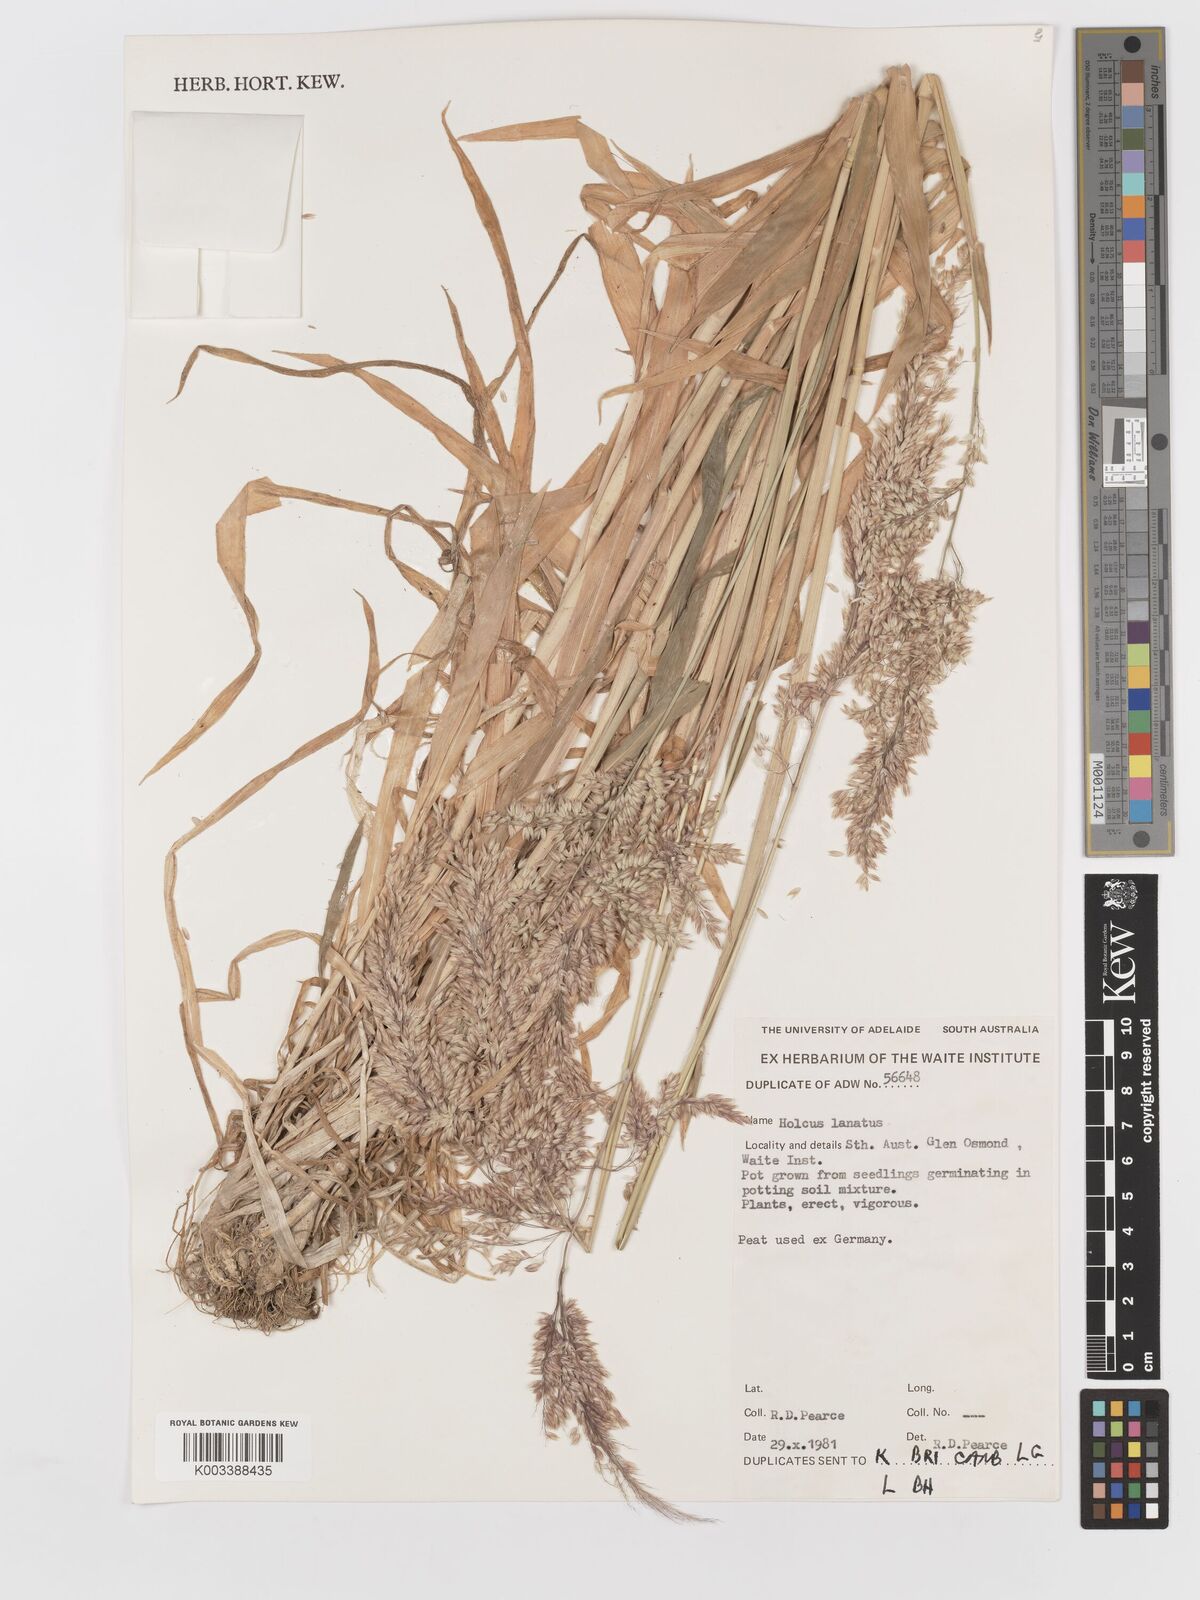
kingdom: Plantae
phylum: Tracheophyta
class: Liliopsida
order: Poales
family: Poaceae
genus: Holcus
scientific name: Holcus lanatus
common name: Yorkshire-fog
